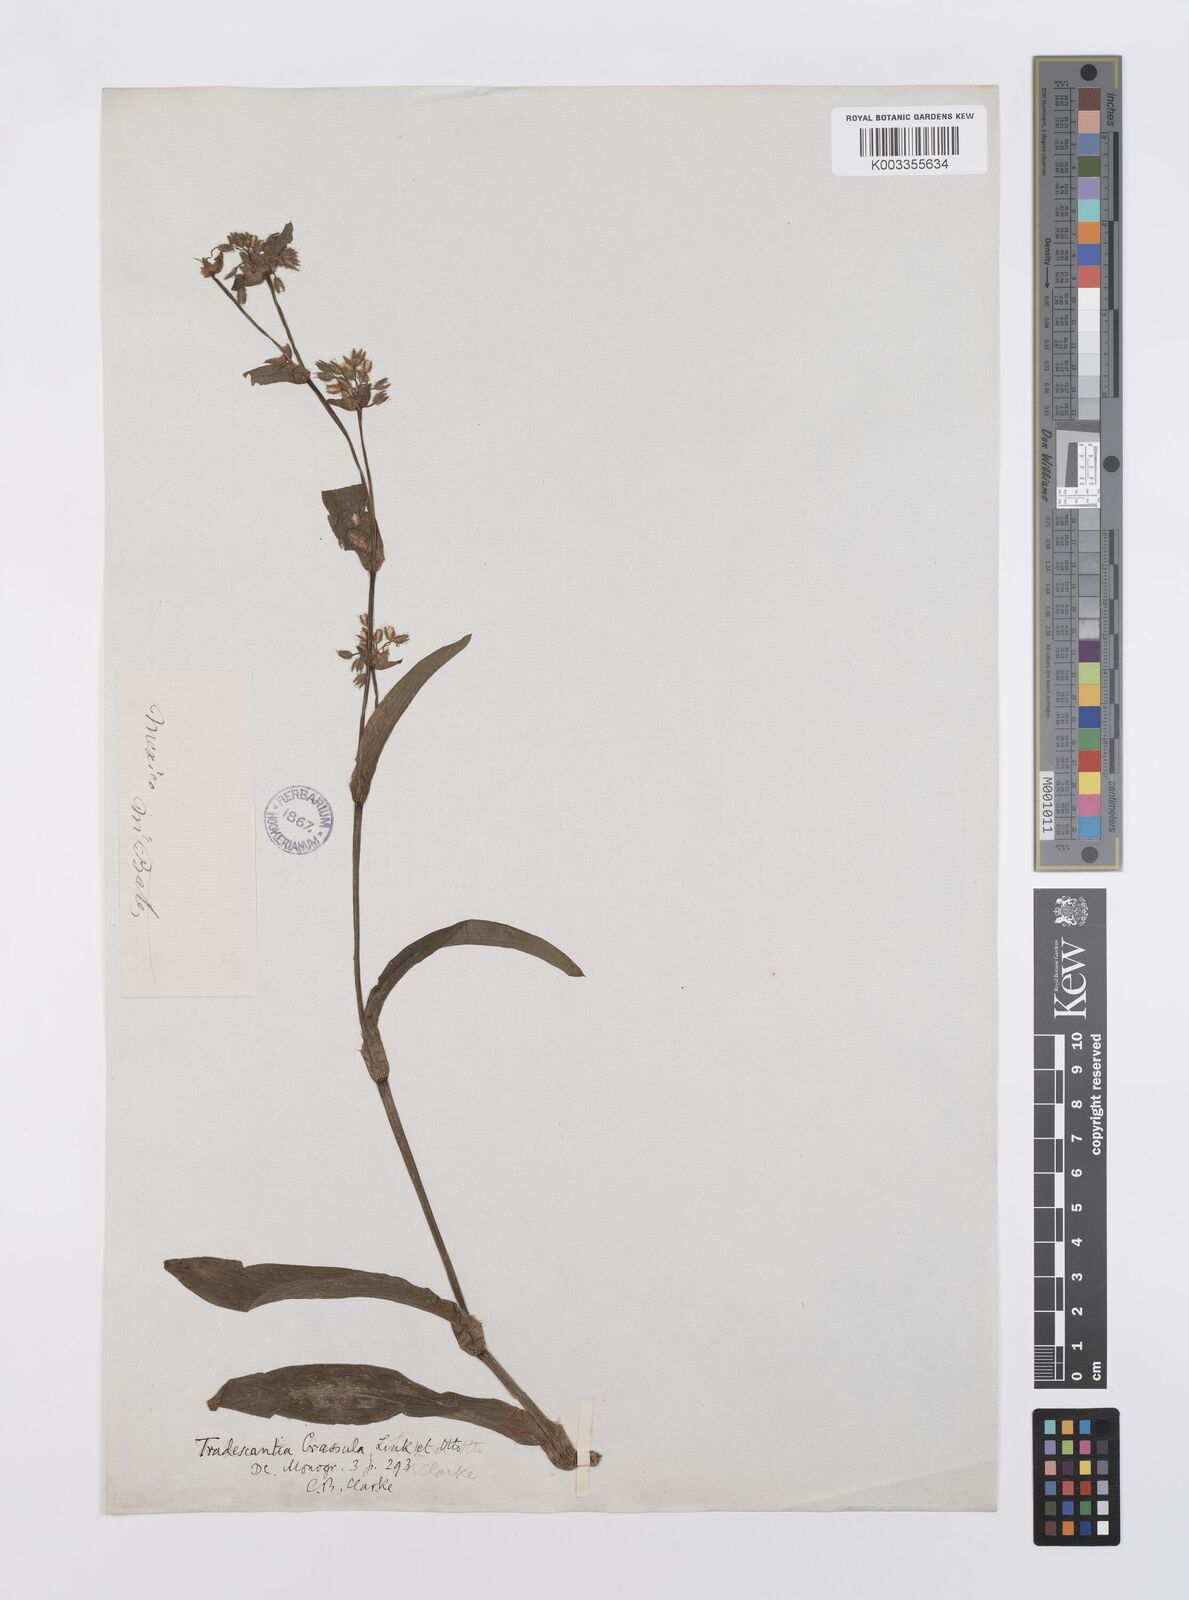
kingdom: Plantae
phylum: Tracheophyta
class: Liliopsida
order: Commelinales
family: Commelinaceae
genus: Tradescantia
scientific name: Tradescantia crassula
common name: Succulent spiderwort
